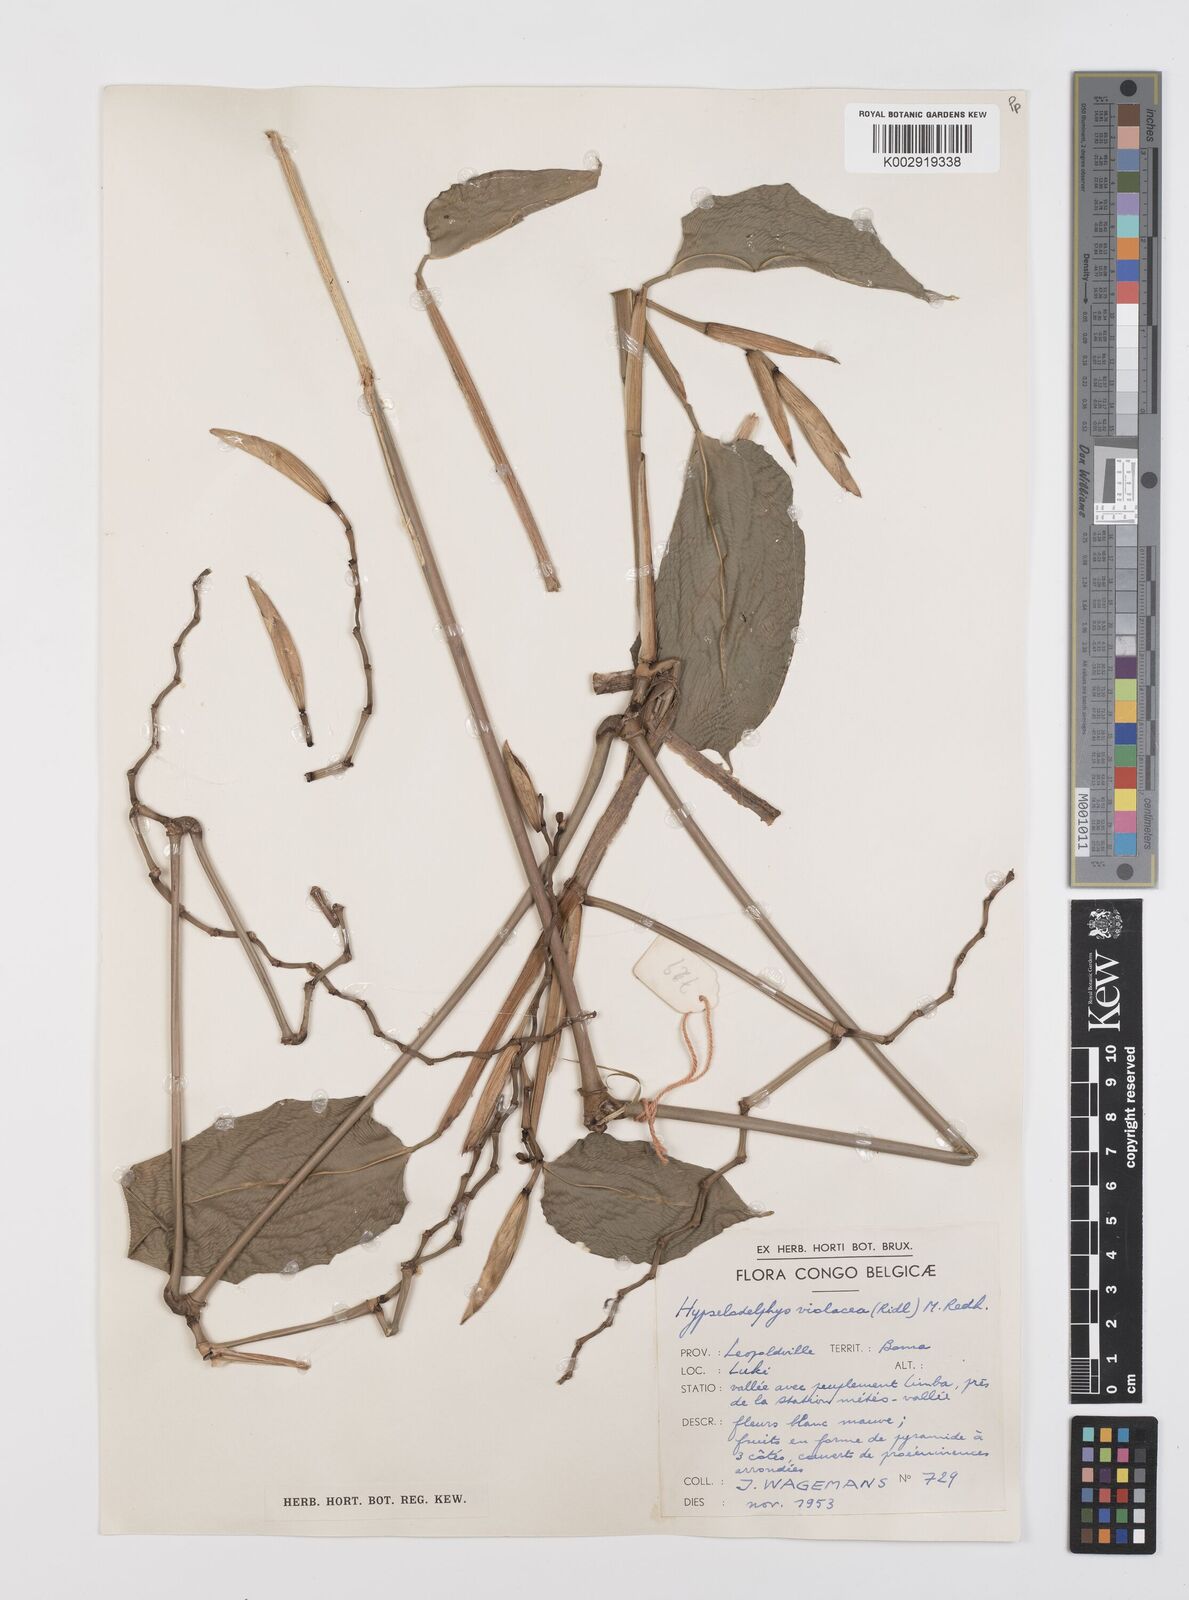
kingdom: Plantae
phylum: Tracheophyta
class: Liliopsida
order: Zingiberales
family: Marantaceae
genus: Hypselodelphys
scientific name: Hypselodelphys violacea
